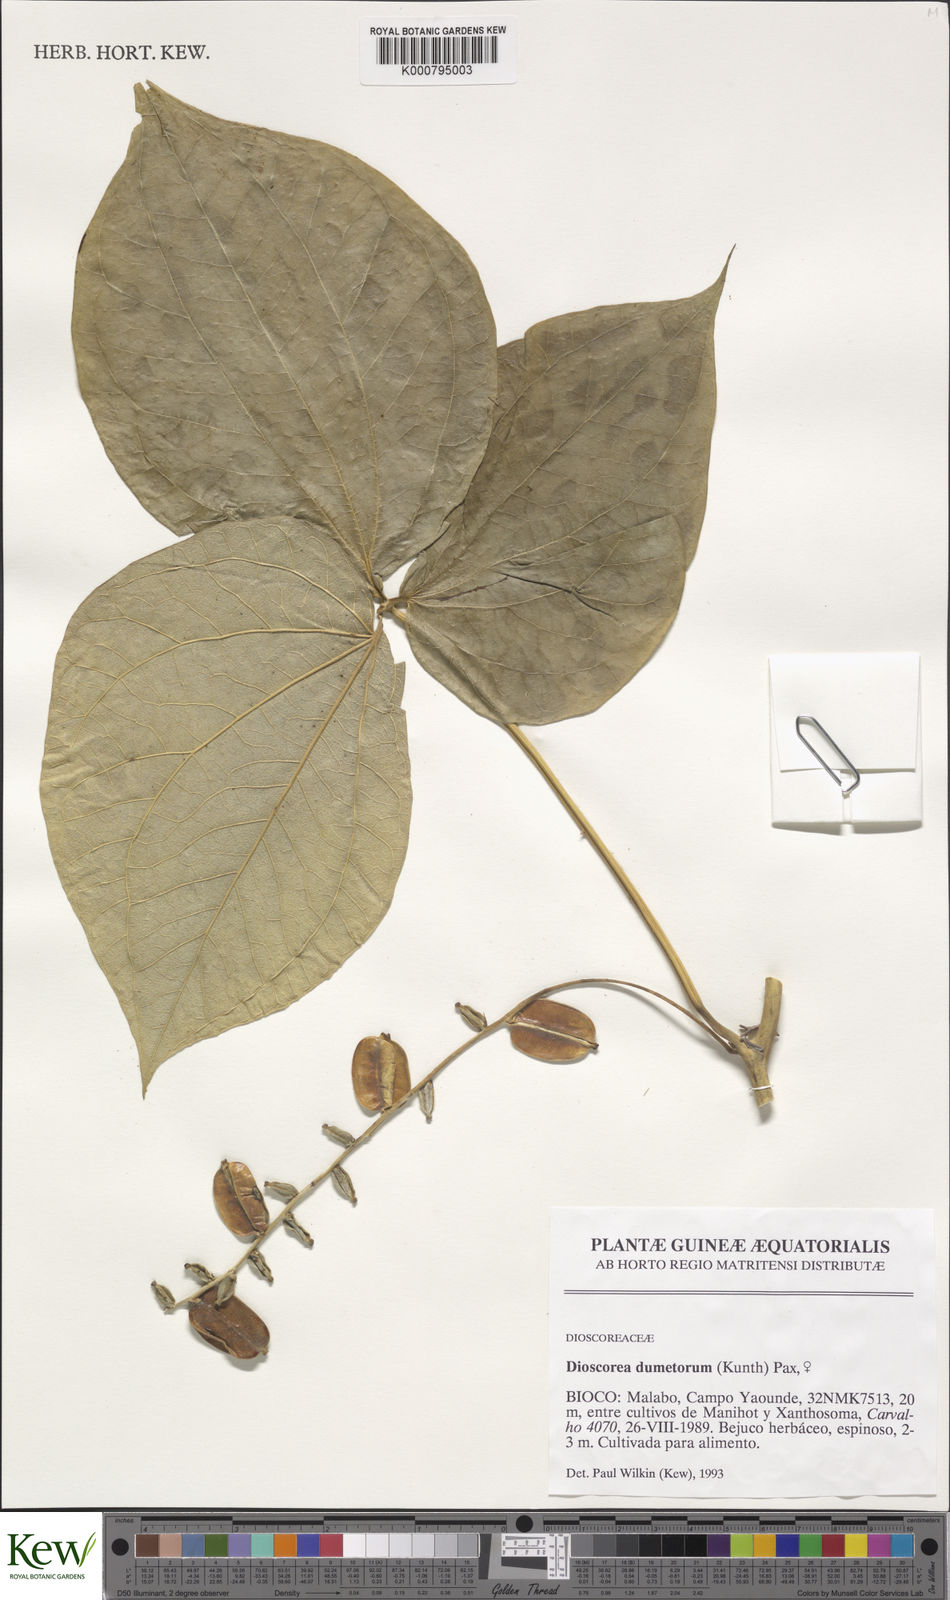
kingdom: Plantae
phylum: Tracheophyta
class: Liliopsida
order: Dioscoreales
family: Dioscoreaceae
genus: Dioscorea
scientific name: Dioscorea dumetorum
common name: African bitter yam
